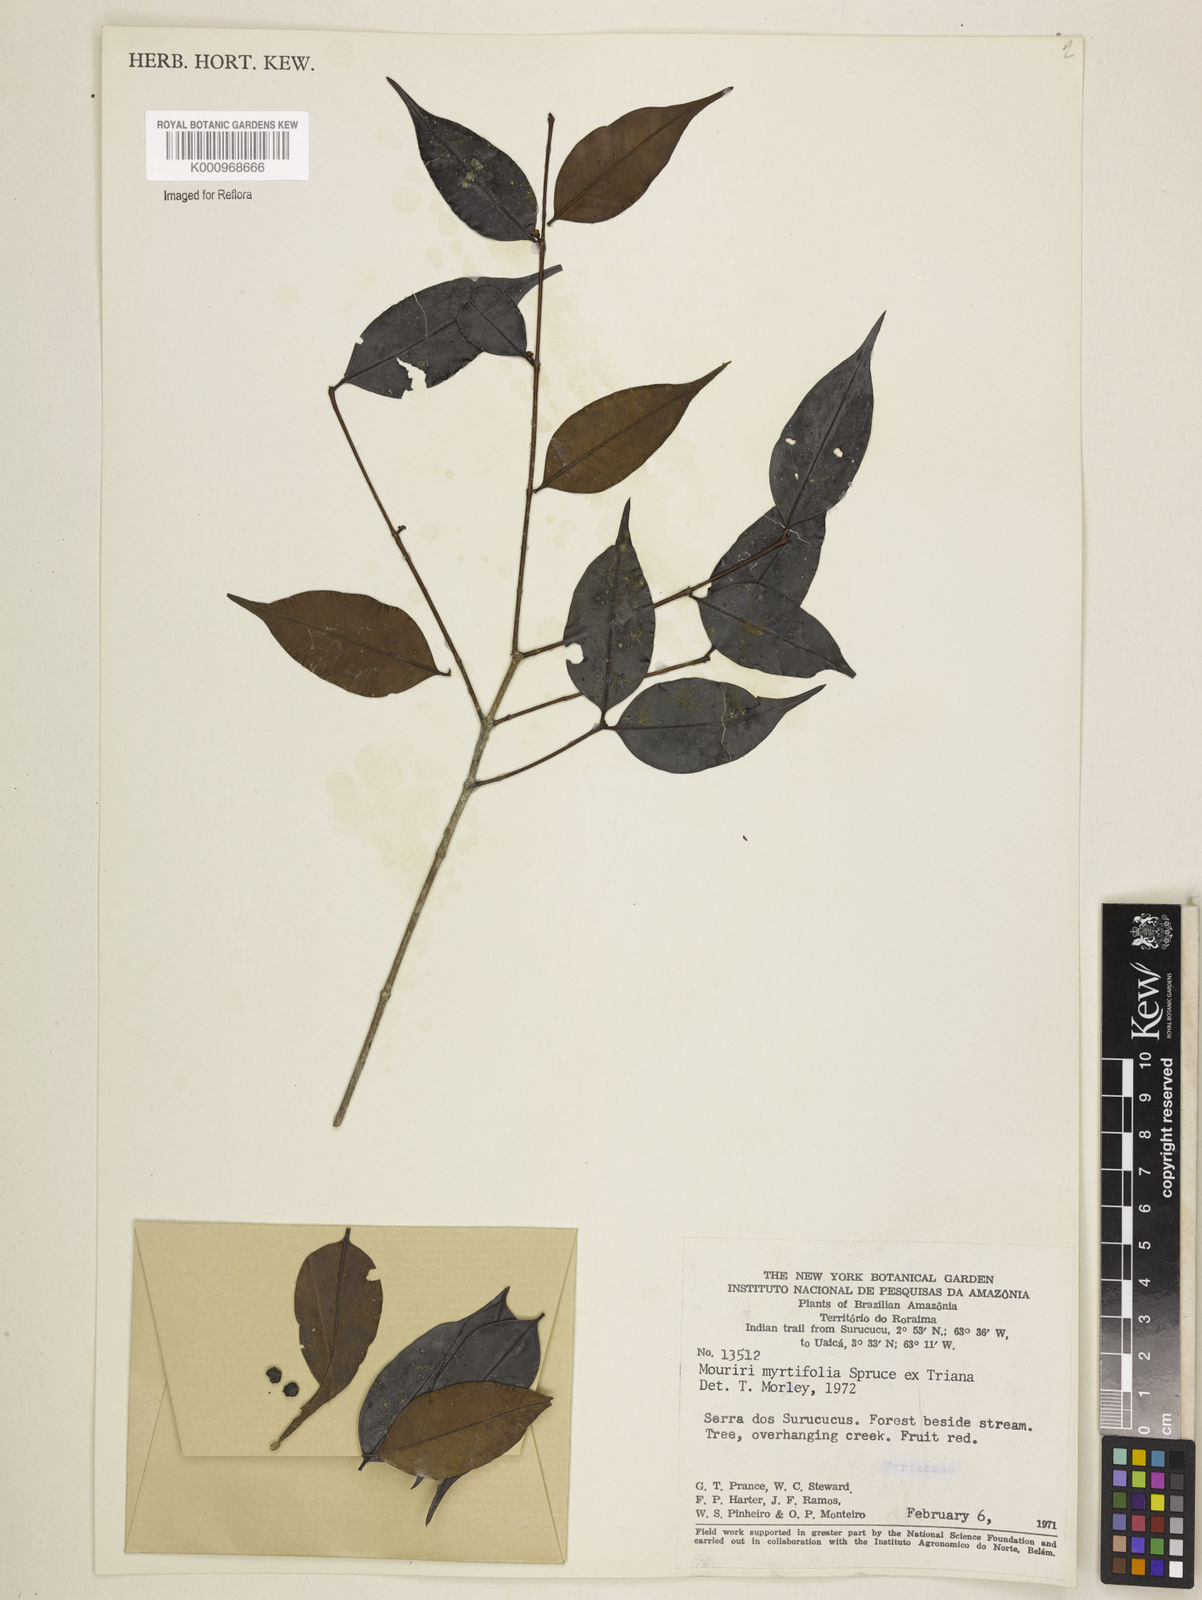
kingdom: Plantae
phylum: Tracheophyta
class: Magnoliopsida
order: Myrtales
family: Melastomataceae
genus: Mouriri
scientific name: Mouriri myrtifolia
